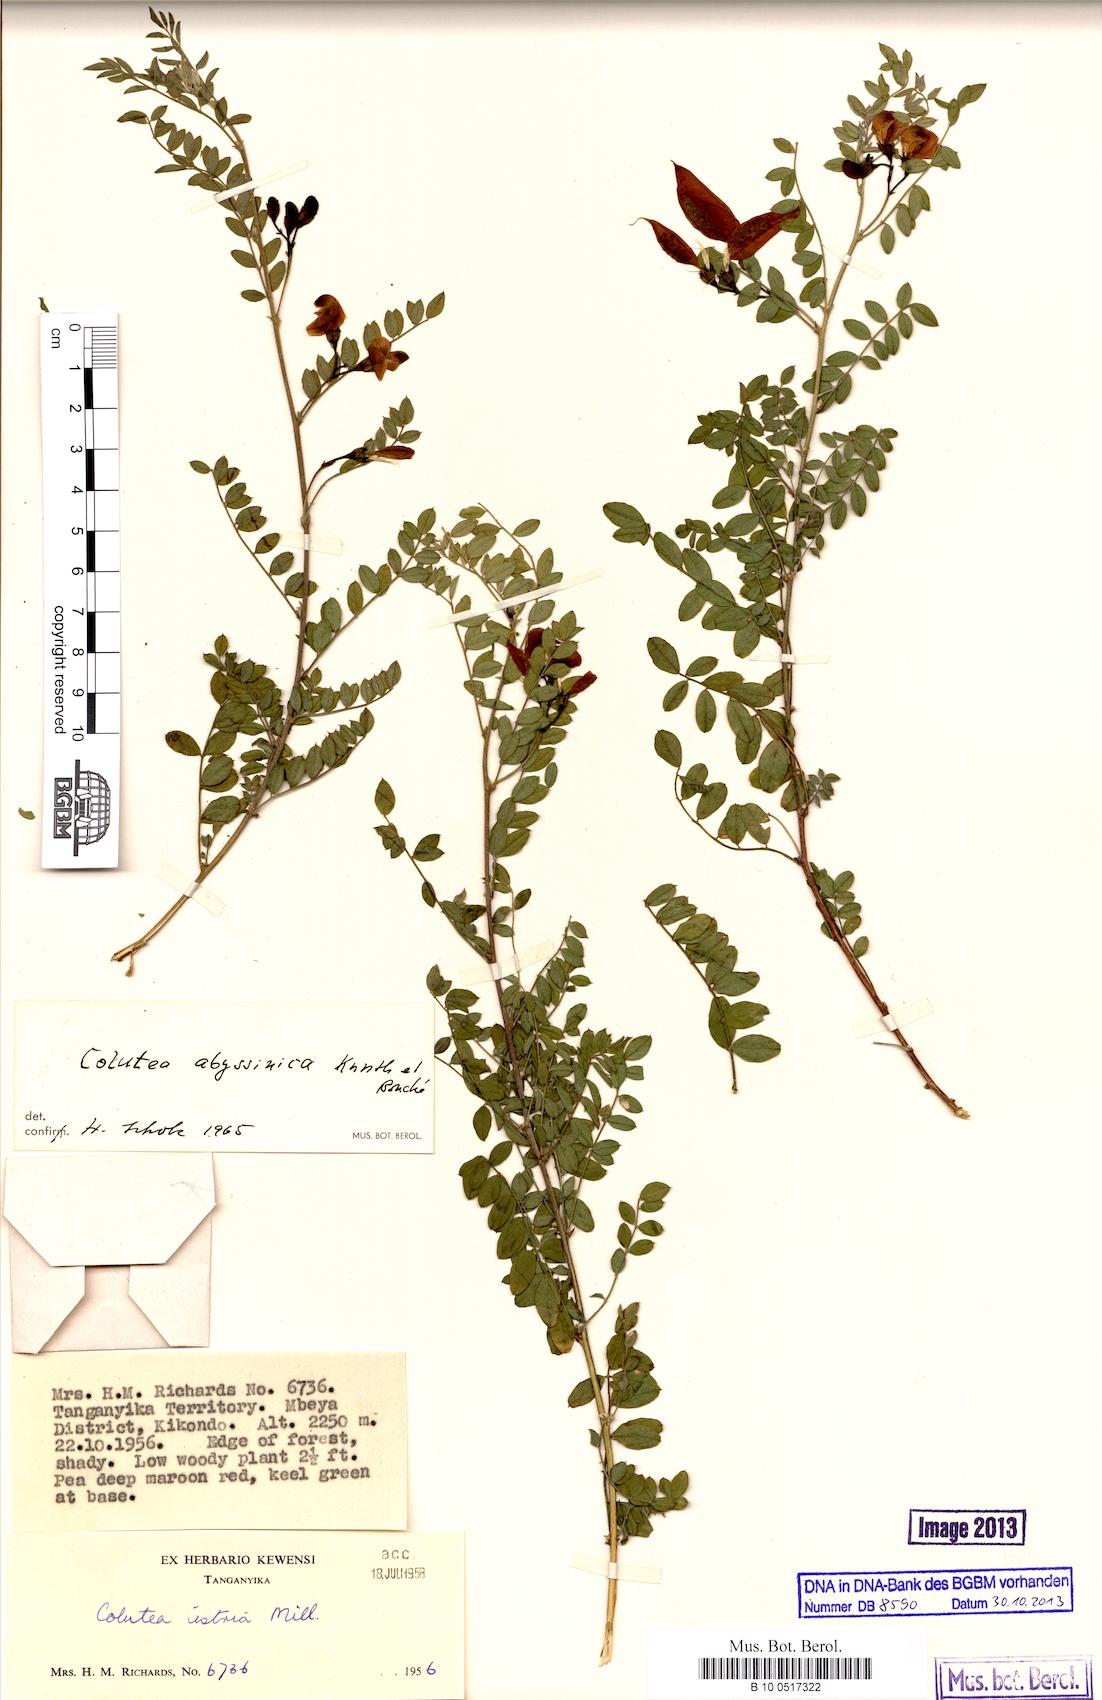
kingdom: Plantae
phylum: Tracheophyta
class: Magnoliopsida
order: Fabales
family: Fabaceae
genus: Colutea
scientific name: Colutea abyssinica
